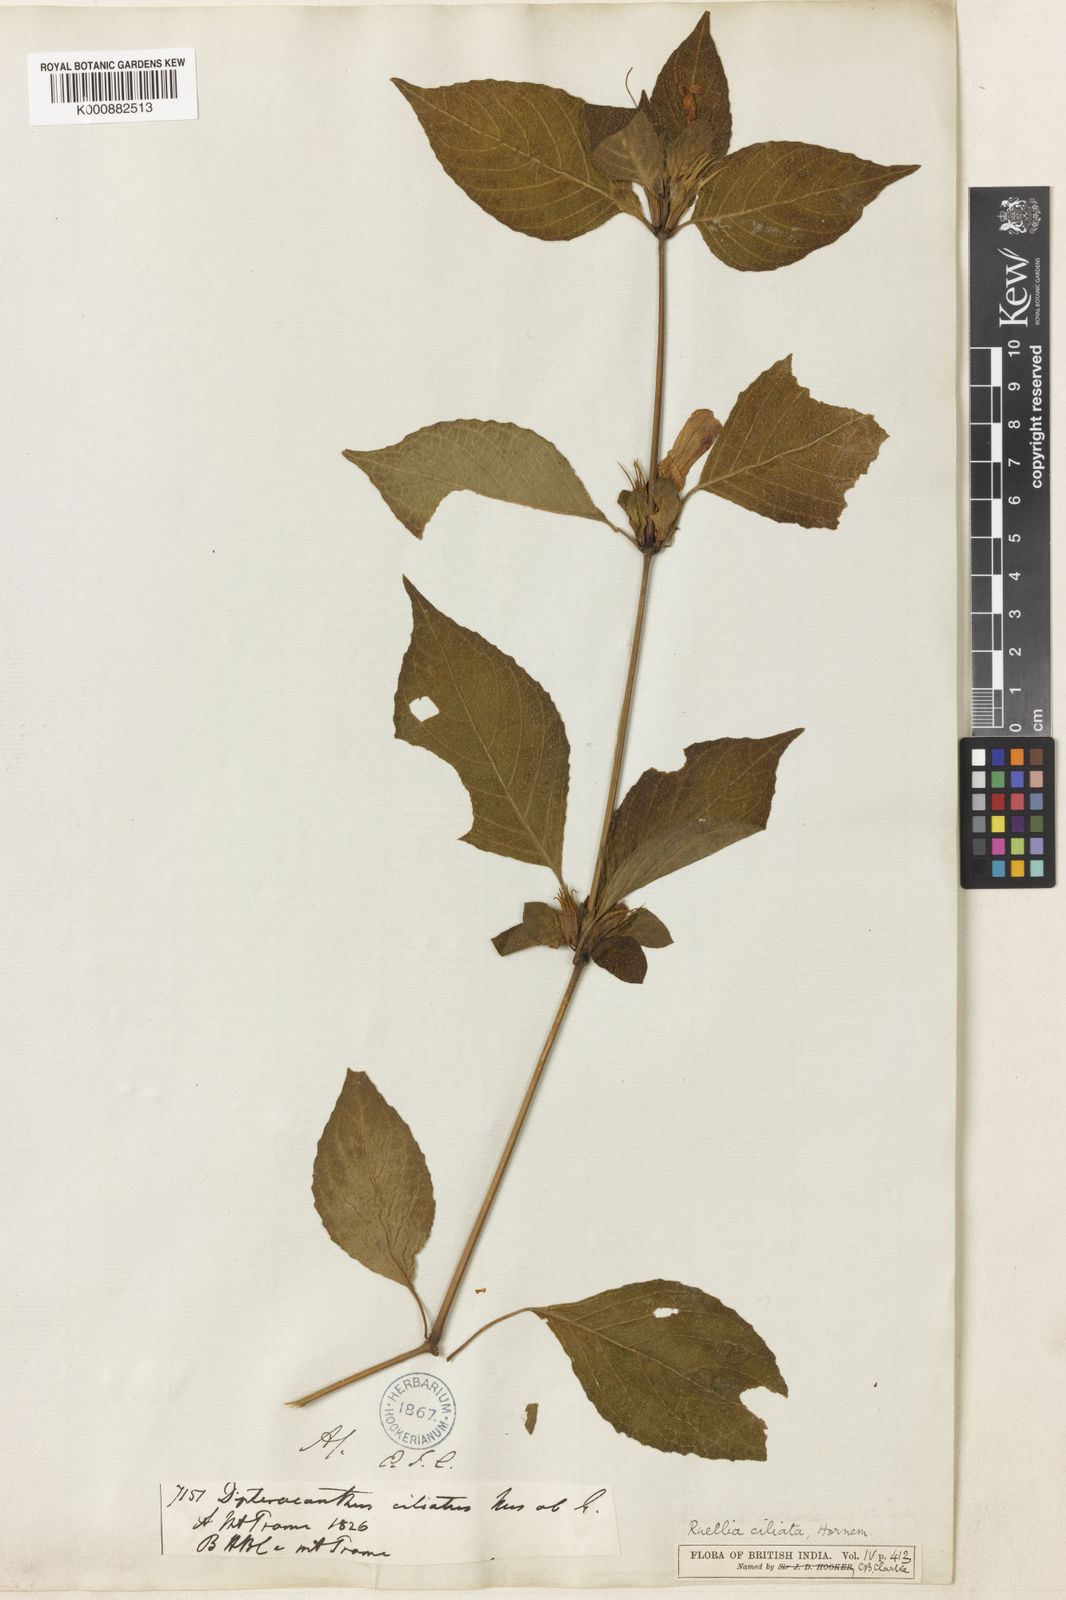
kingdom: Plantae
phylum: Tracheophyta
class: Magnoliopsida
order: Lamiales
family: Acanthaceae
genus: Ruellia
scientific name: Ruellia ciliata
